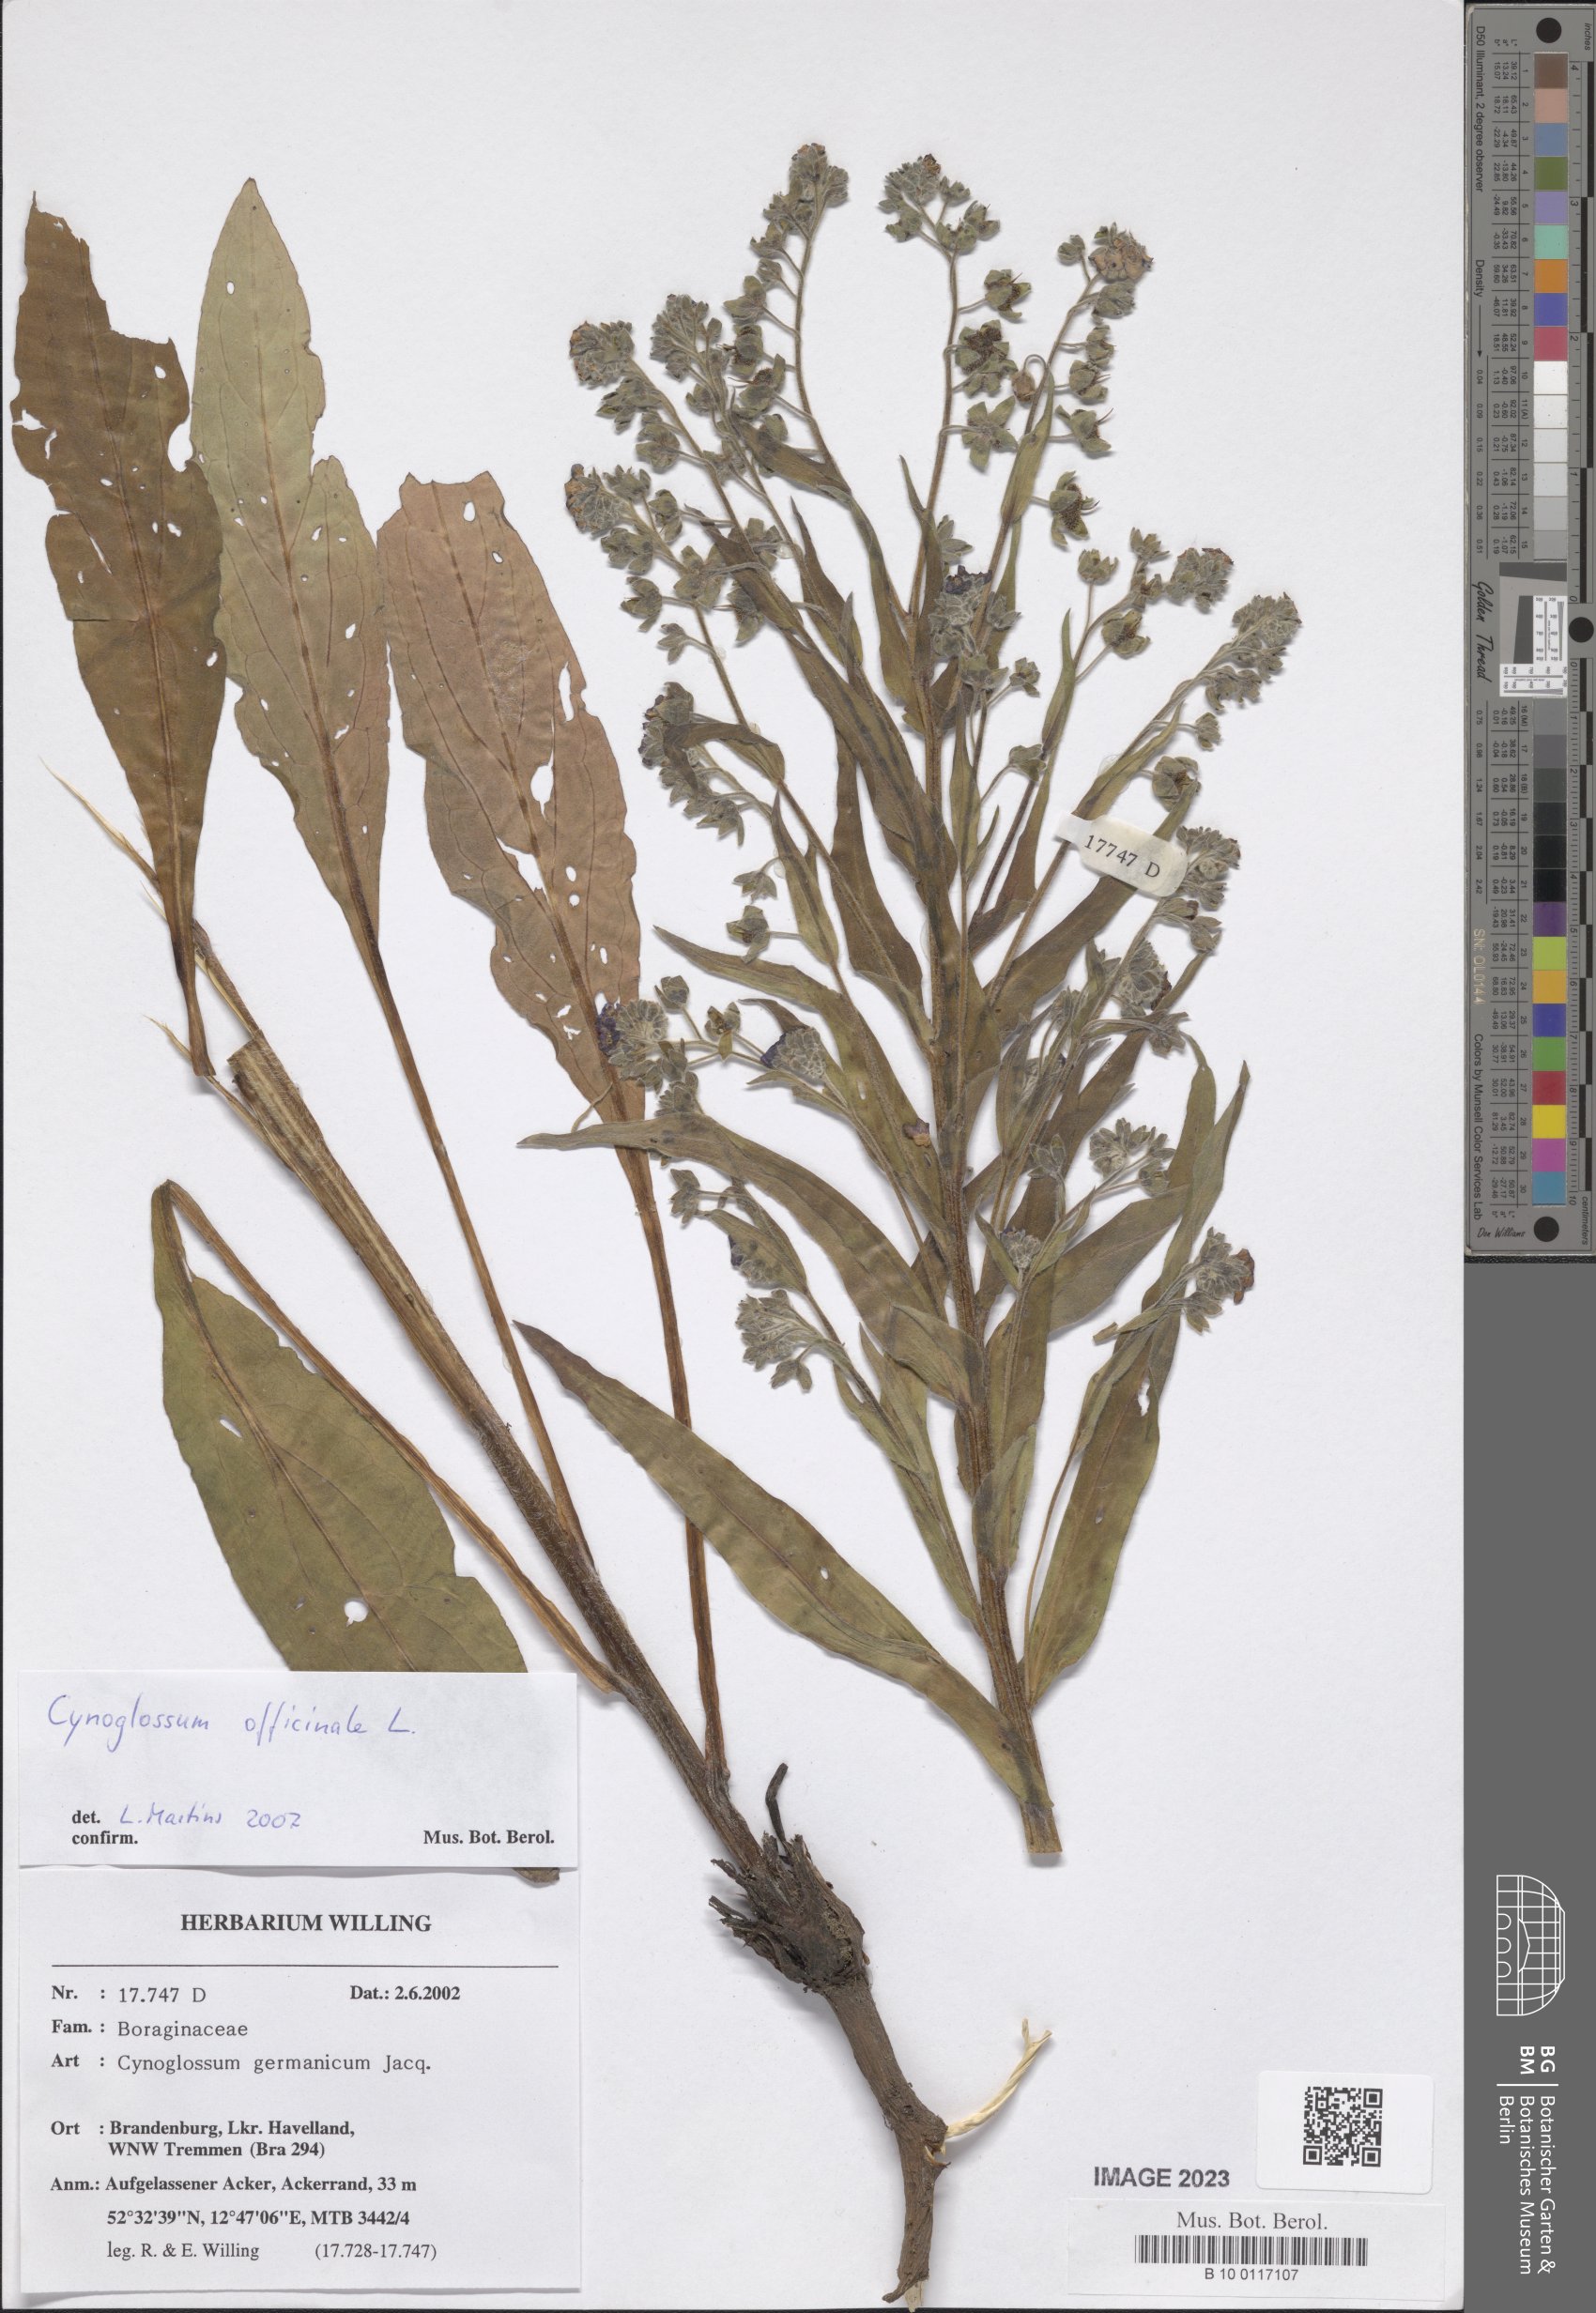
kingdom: Plantae
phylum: Tracheophyta
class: Magnoliopsida
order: Boraginales
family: Boraginaceae
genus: Cynoglossum
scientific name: Cynoglossum officinale
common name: Hound's-tongue
